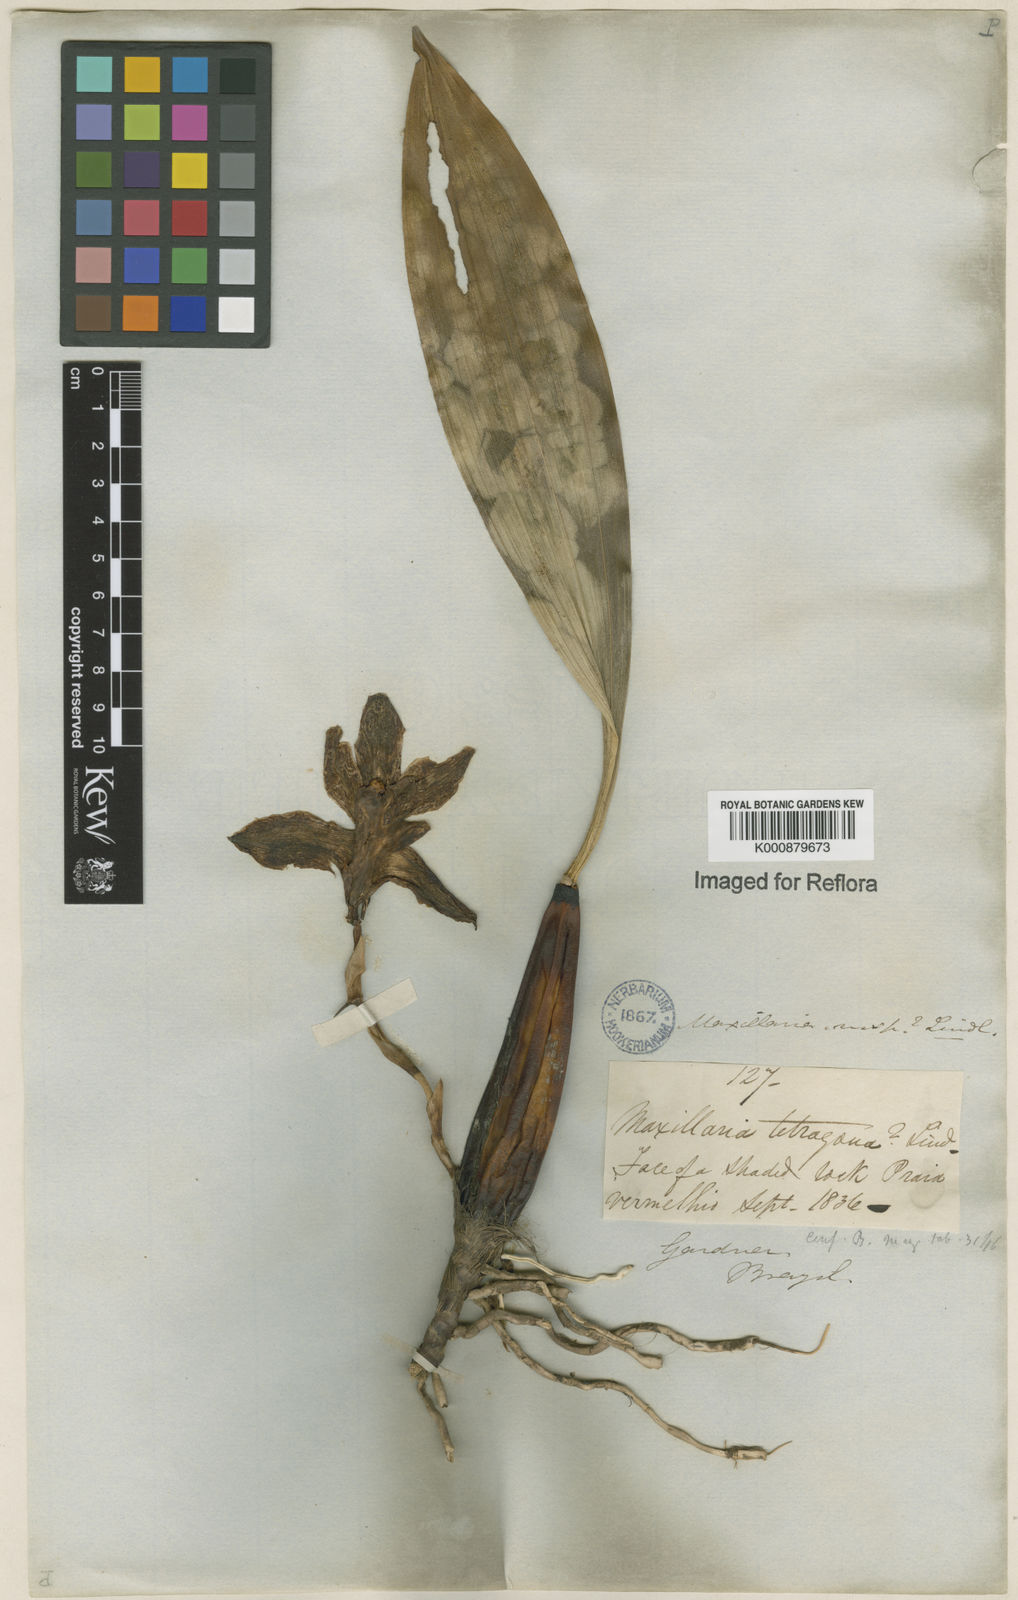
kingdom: Plantae
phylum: Tracheophyta
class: Liliopsida
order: Asparagales
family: Orchidaceae
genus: Bifrenaria
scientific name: Bifrenaria inodora
